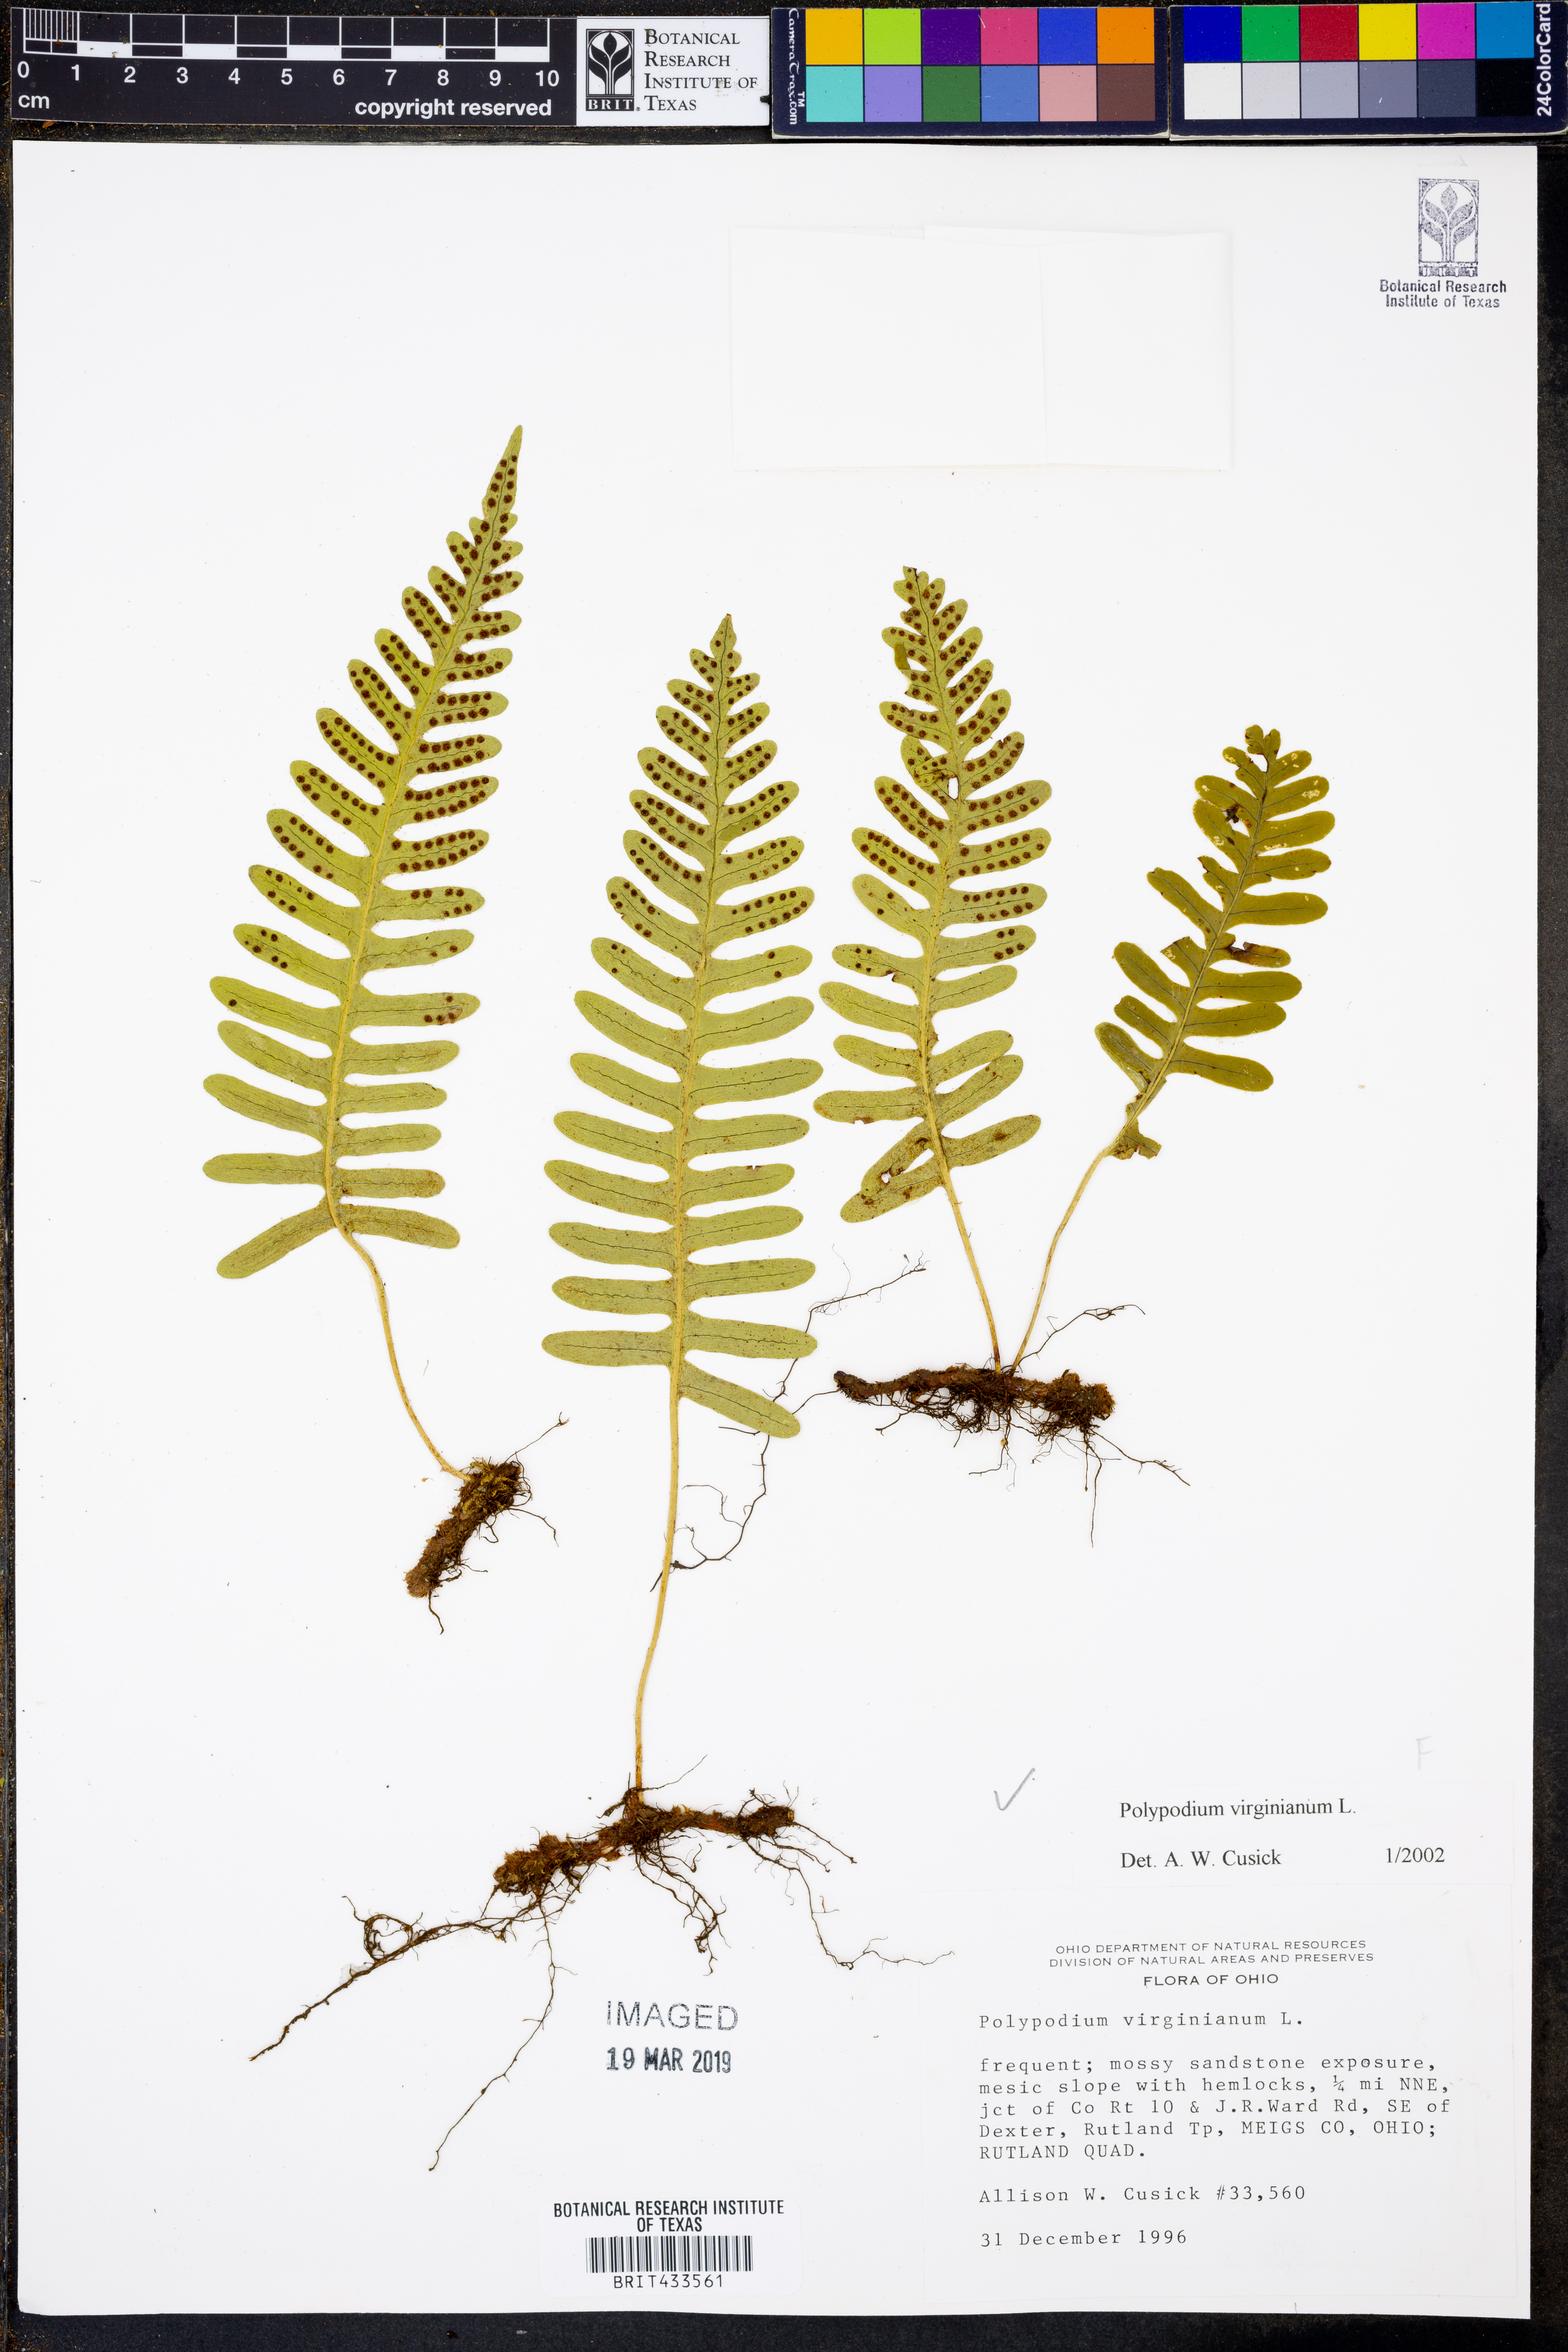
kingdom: Plantae
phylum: Tracheophyta
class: Polypodiopsida
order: Polypodiales
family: Polypodiaceae
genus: Polypodium
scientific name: Polypodium virginianum
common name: American wall fern
